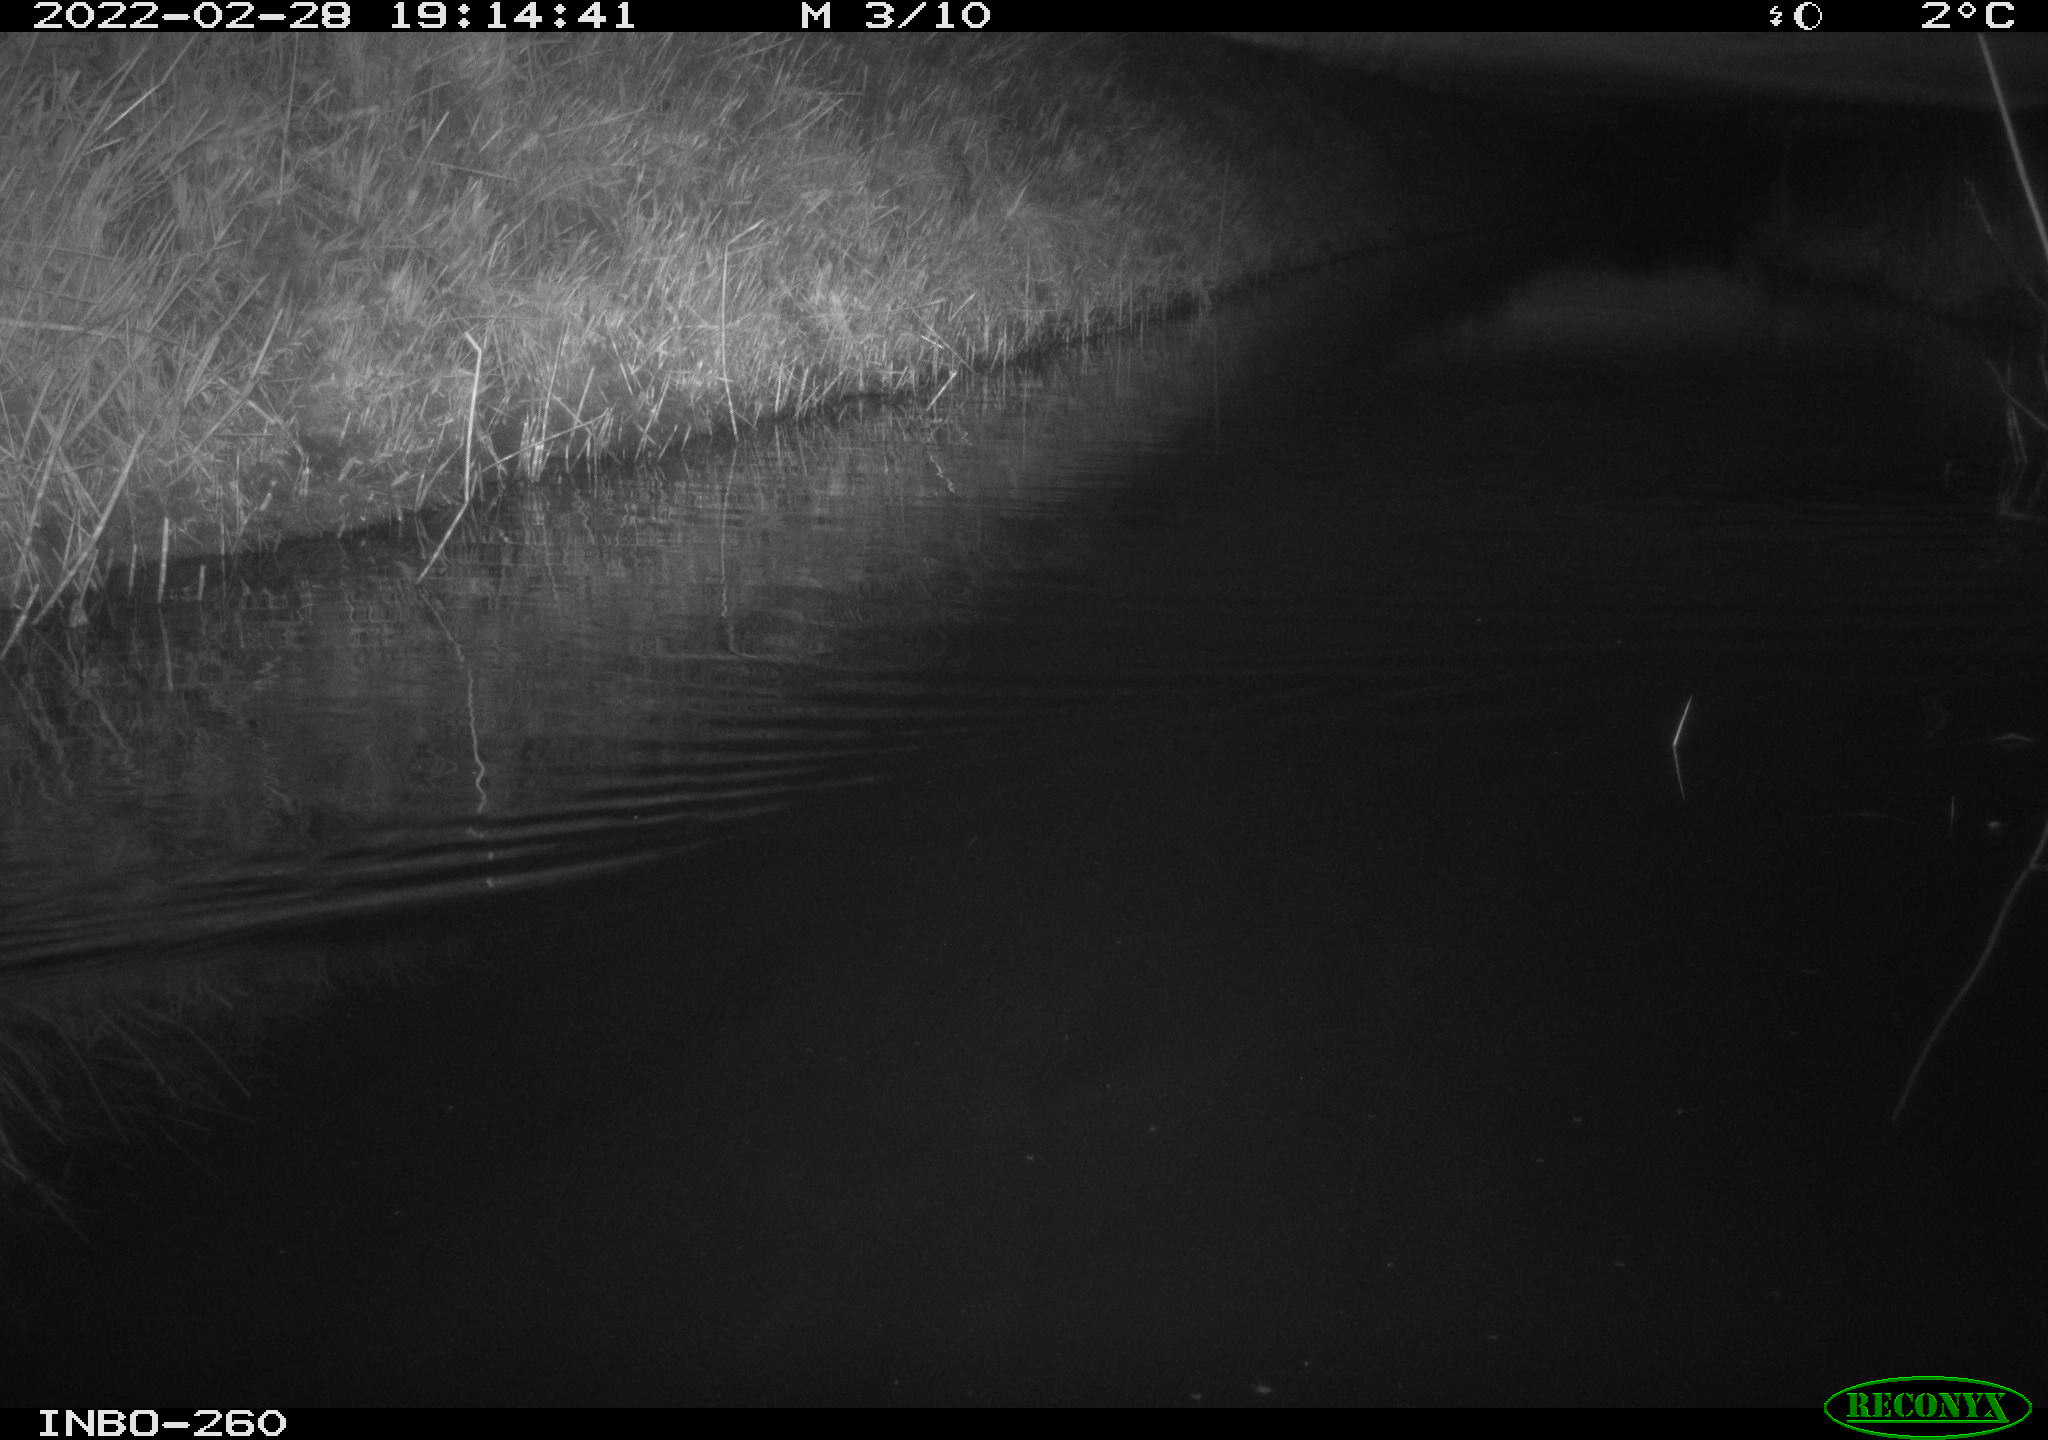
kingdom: Animalia
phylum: Chordata
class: Aves
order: Gruiformes
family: Rallidae
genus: Gallinula
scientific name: Gallinula chloropus
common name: Common moorhen
